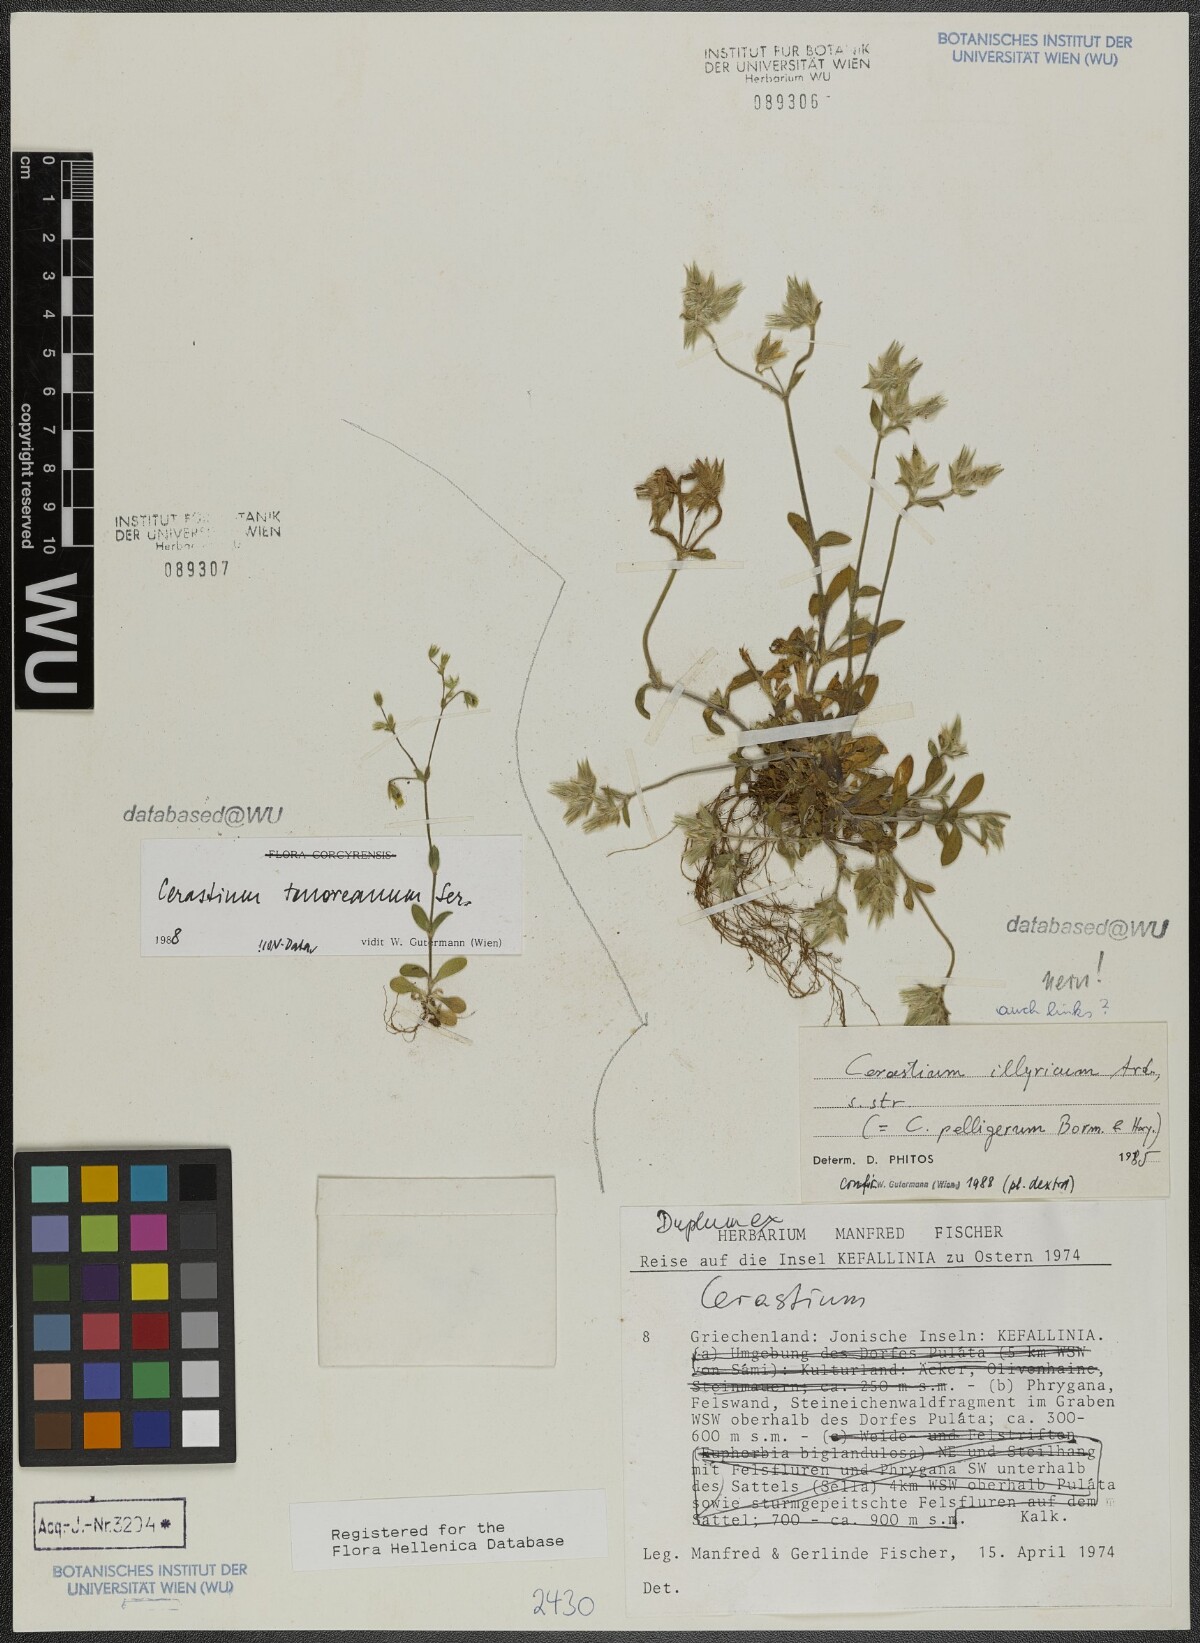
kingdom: Plantae
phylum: Tracheophyta
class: Magnoliopsida
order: Caryophyllales
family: Caryophyllaceae
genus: Cerastium
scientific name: Cerastium tenoreanum
